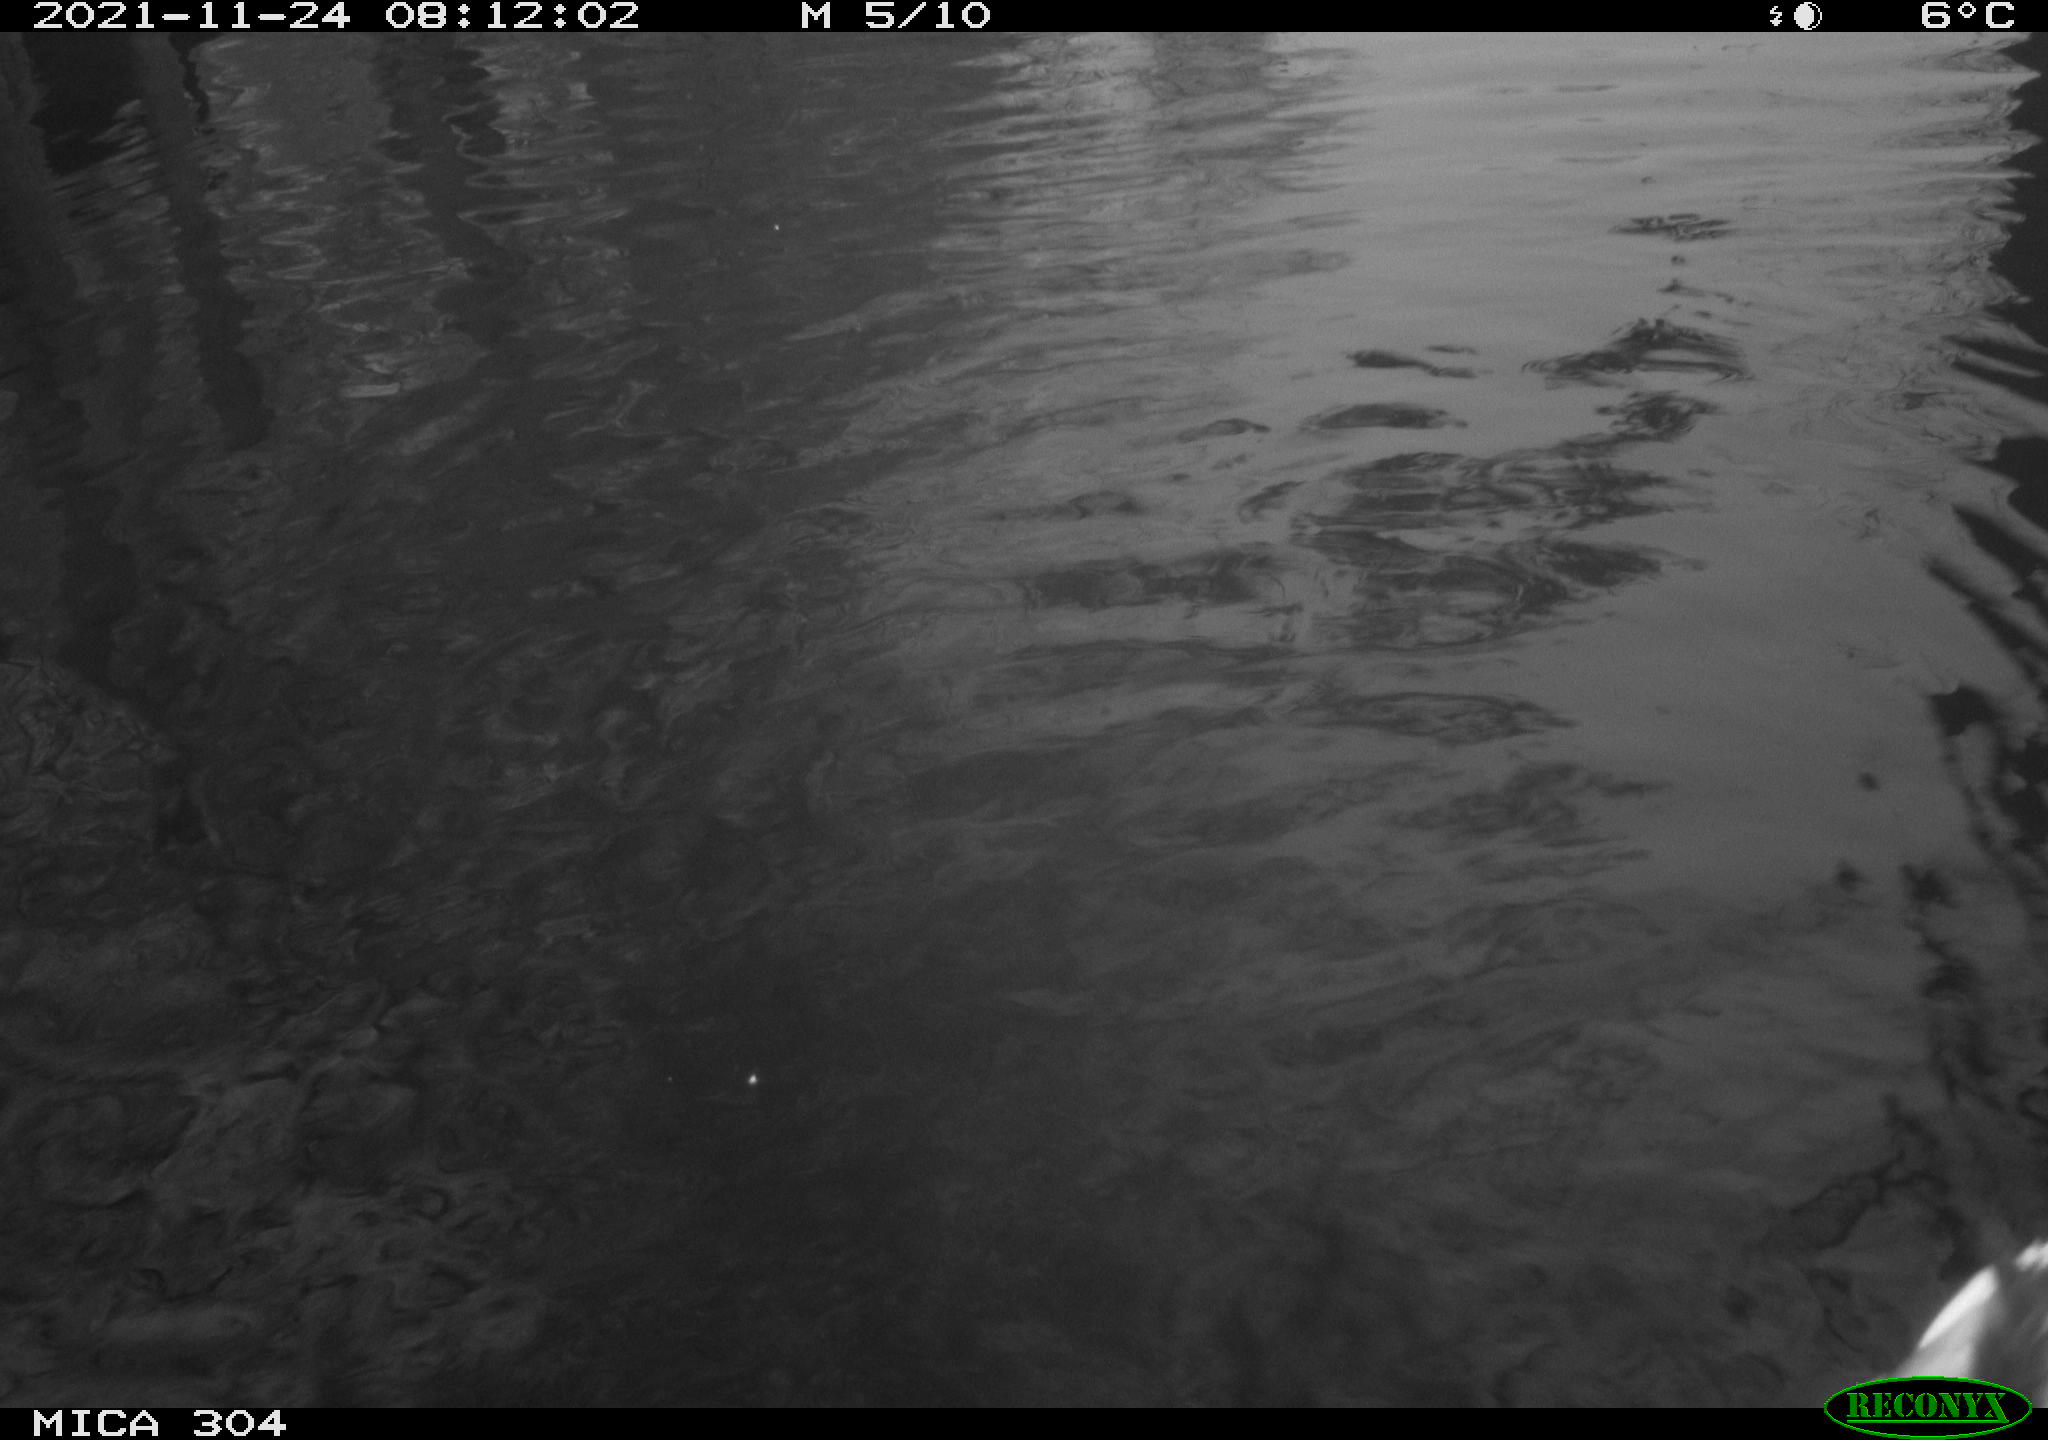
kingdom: Animalia
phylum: Chordata
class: Aves
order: Anseriformes
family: Anatidae
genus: Anas
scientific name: Anas platyrhynchos
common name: Mallard
